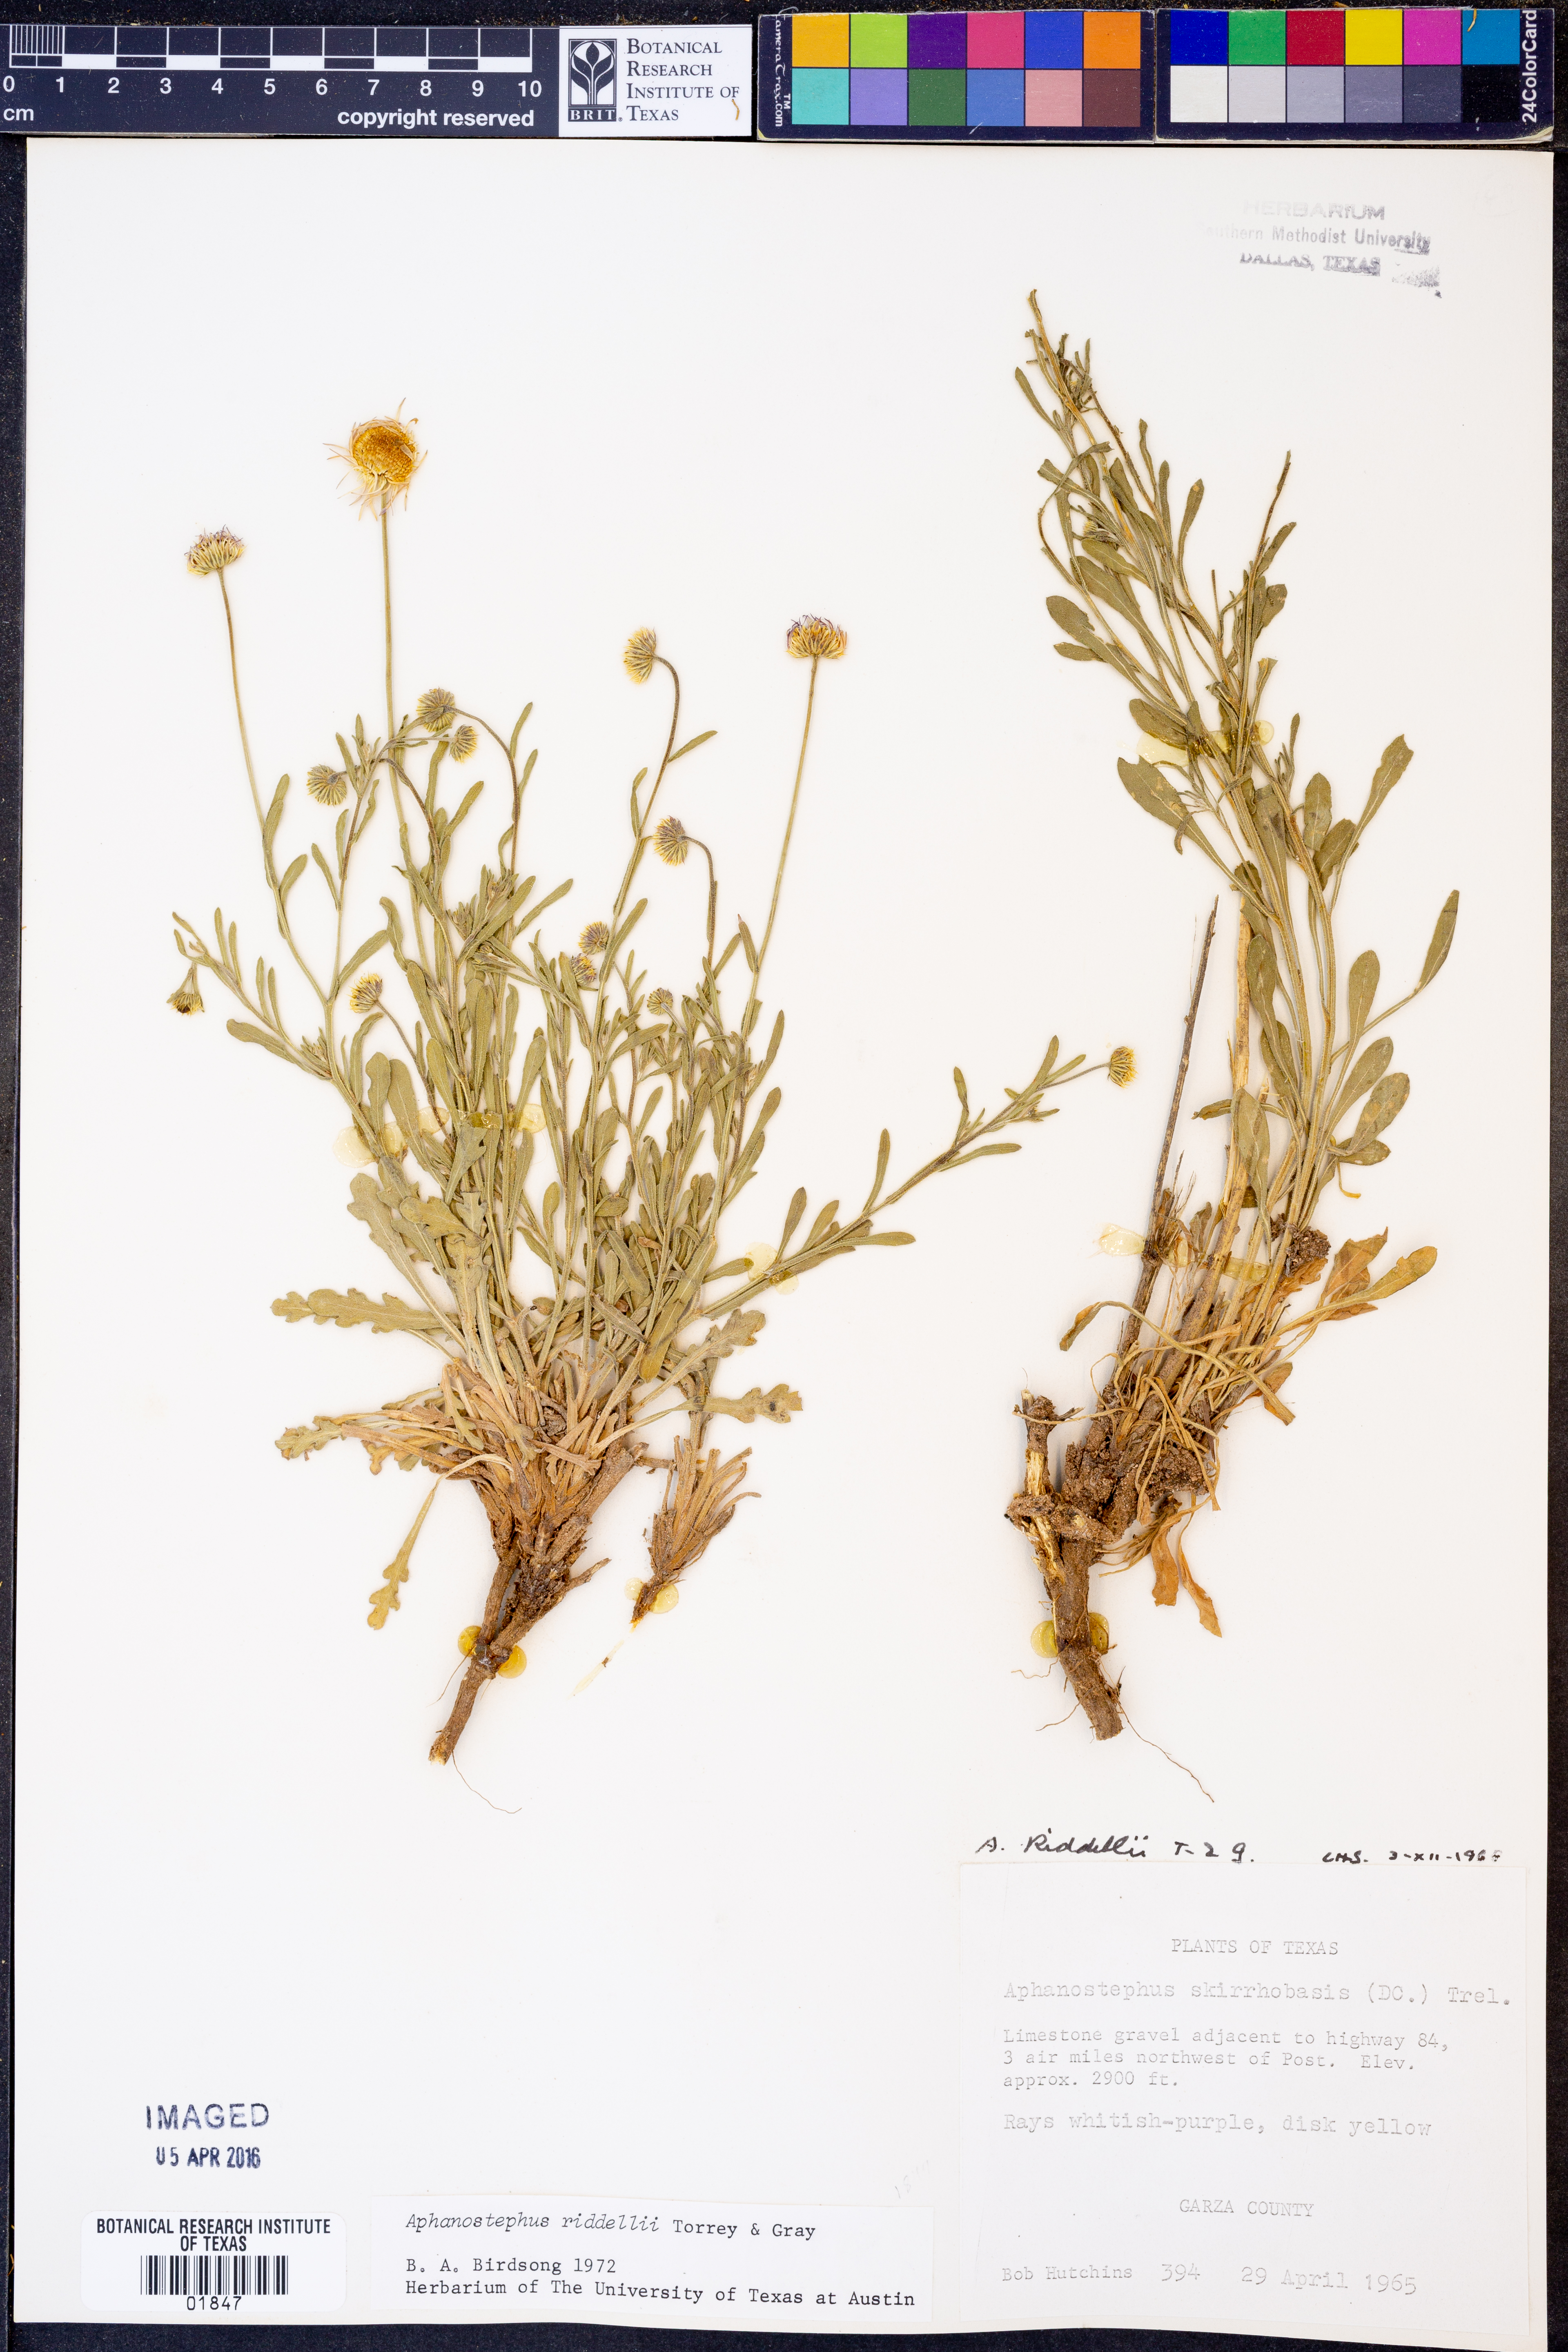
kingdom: Plantae
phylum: Tracheophyta
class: Magnoliopsida
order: Asterales
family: Asteraceae
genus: Aphanostephus
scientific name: Aphanostephus riddellii
